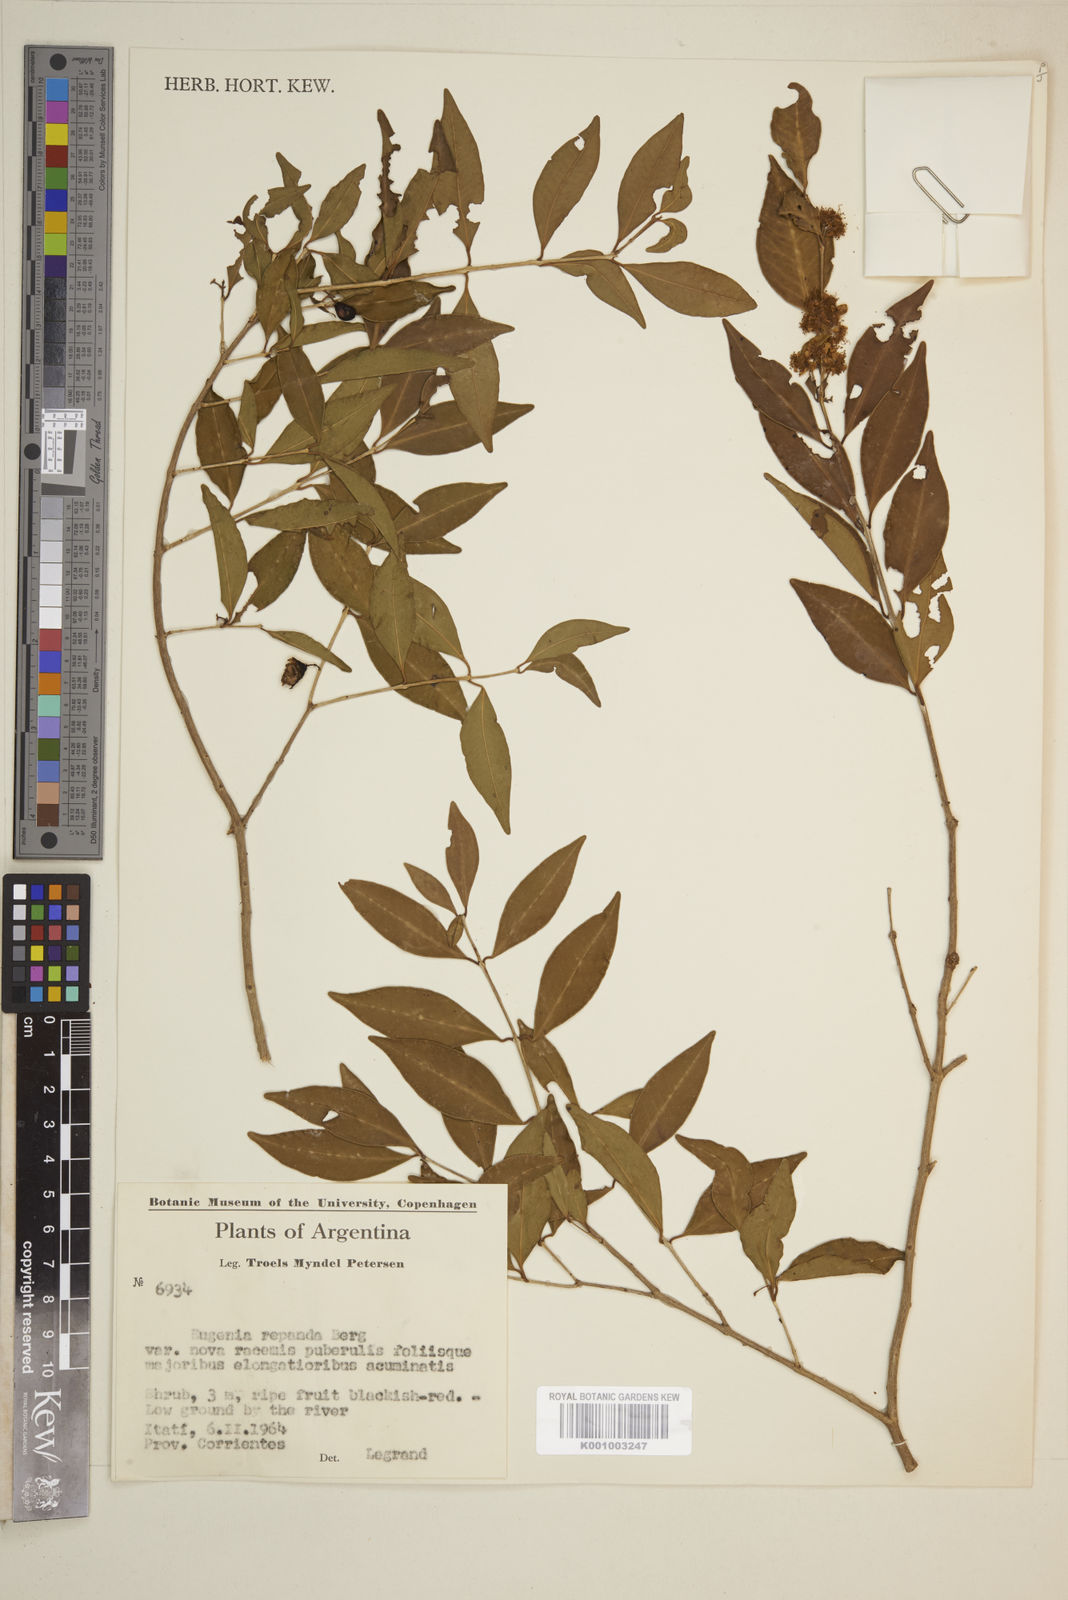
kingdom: Plantae
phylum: Tracheophyta
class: Magnoliopsida
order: Myrtales
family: Myrtaceae
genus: Eugenia
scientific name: Eugenia repanda
